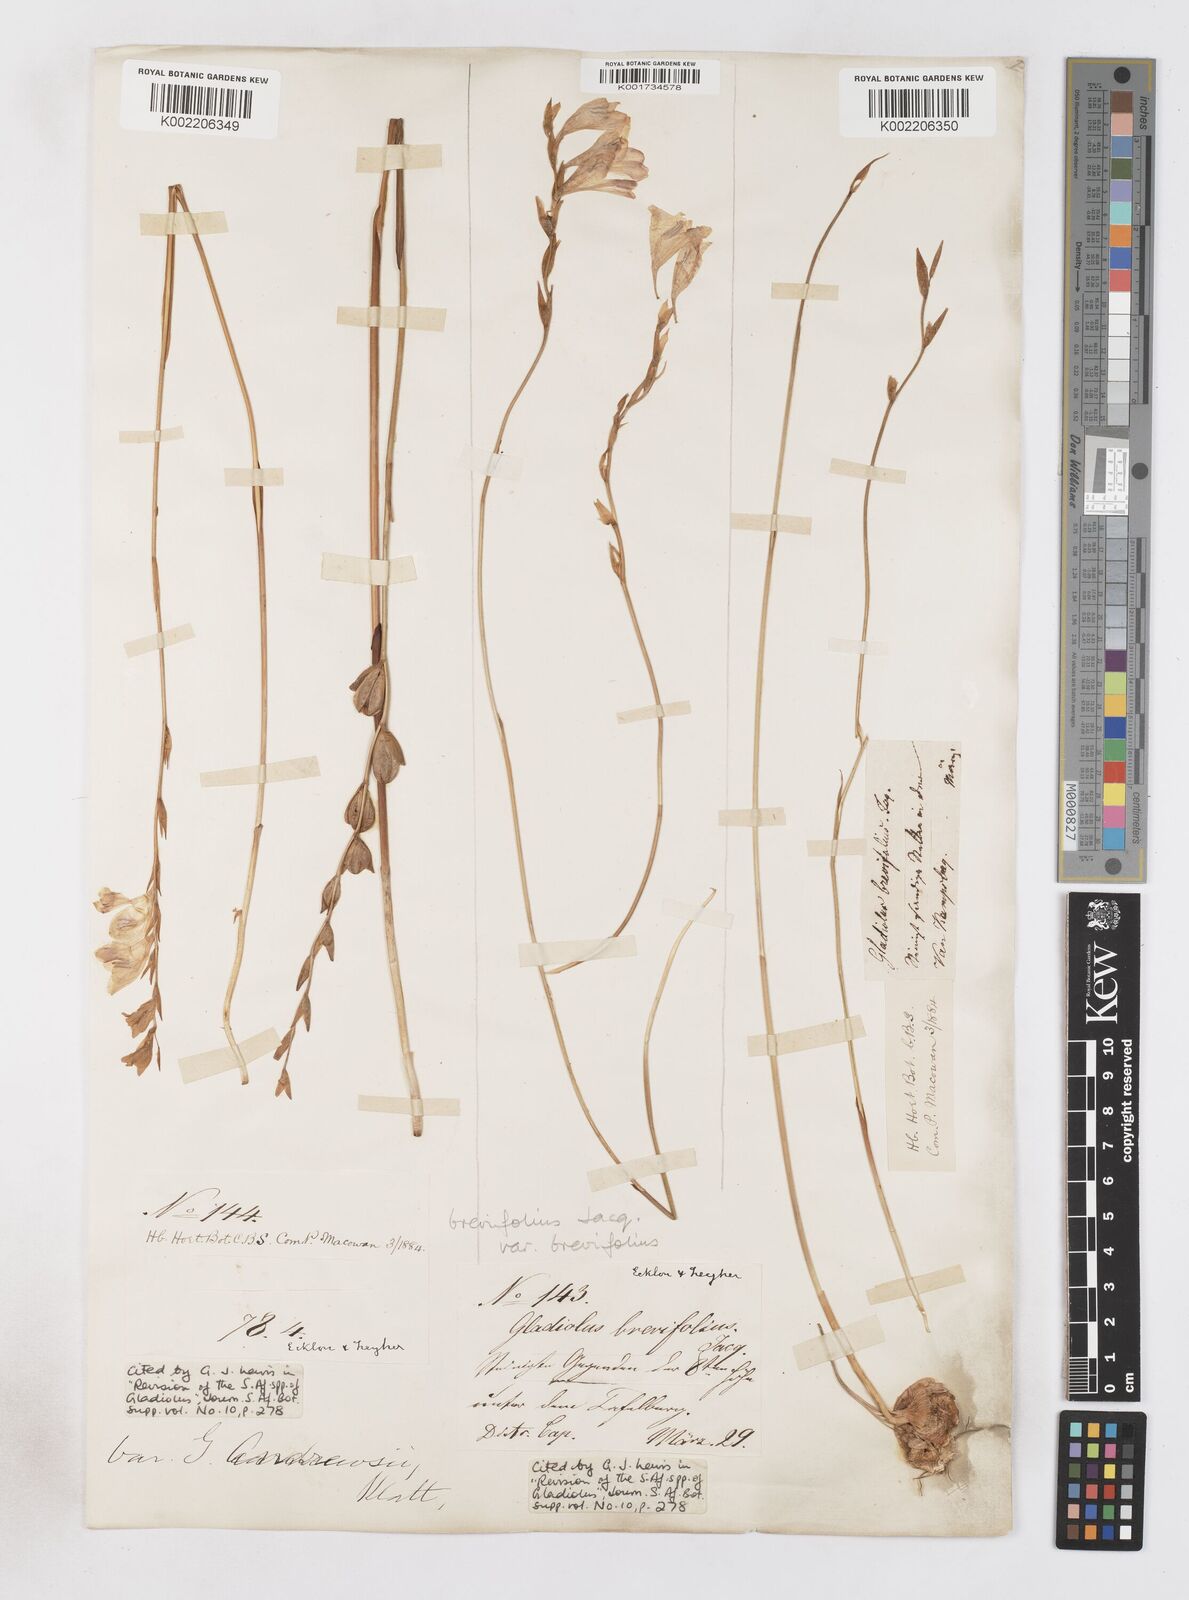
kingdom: Plantae
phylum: Tracheophyta
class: Liliopsida
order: Asparagales
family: Iridaceae
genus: Gladiolus
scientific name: Gladiolus brevifolius
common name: March pypie
